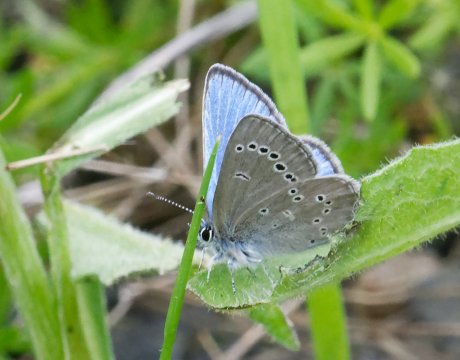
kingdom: Animalia
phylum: Arthropoda
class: Insecta
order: Lepidoptera
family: Lycaenidae
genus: Glaucopsyche
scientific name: Glaucopsyche lygdamus
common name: Silvery Blue
